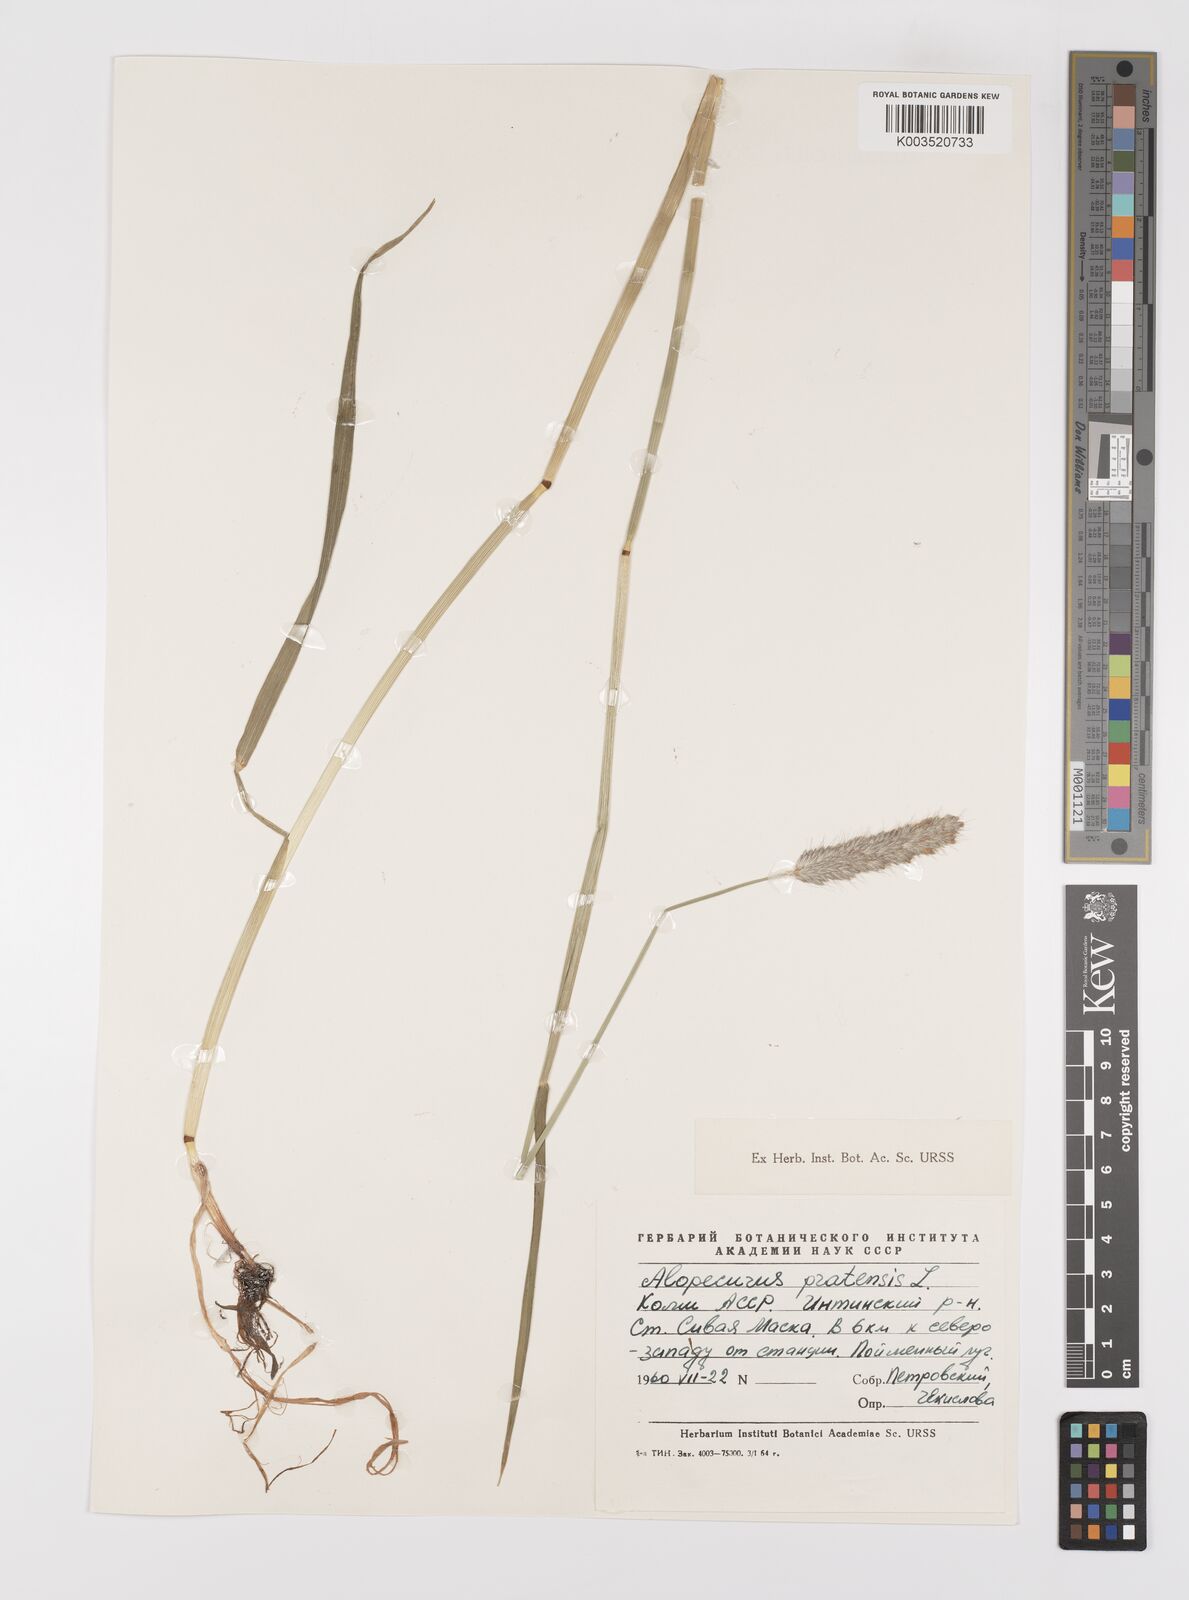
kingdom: Plantae
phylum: Tracheophyta
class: Liliopsida
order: Poales
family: Poaceae
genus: Alopecurus
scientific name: Alopecurus pratensis
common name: Meadow foxtail
